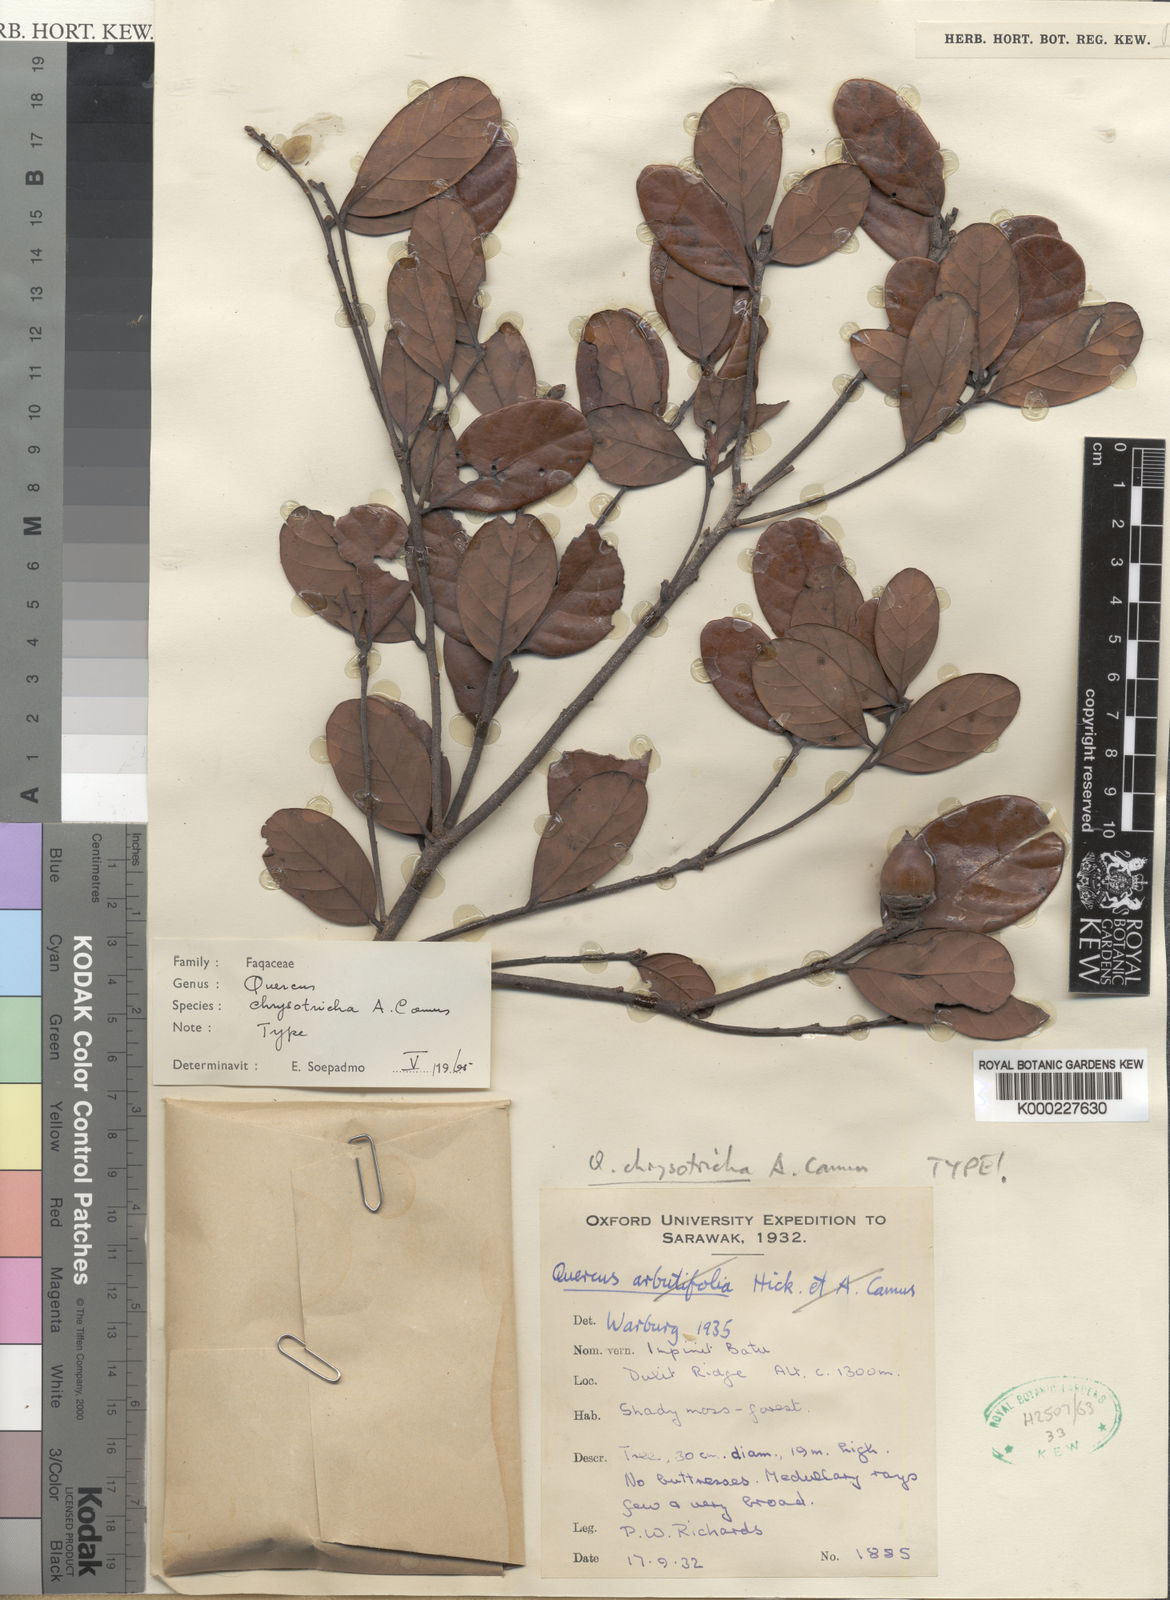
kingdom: Plantae
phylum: Tracheophyta
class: Magnoliopsida
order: Fagales
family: Fagaceae
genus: Quercus
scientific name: Quercus chrysotricha
